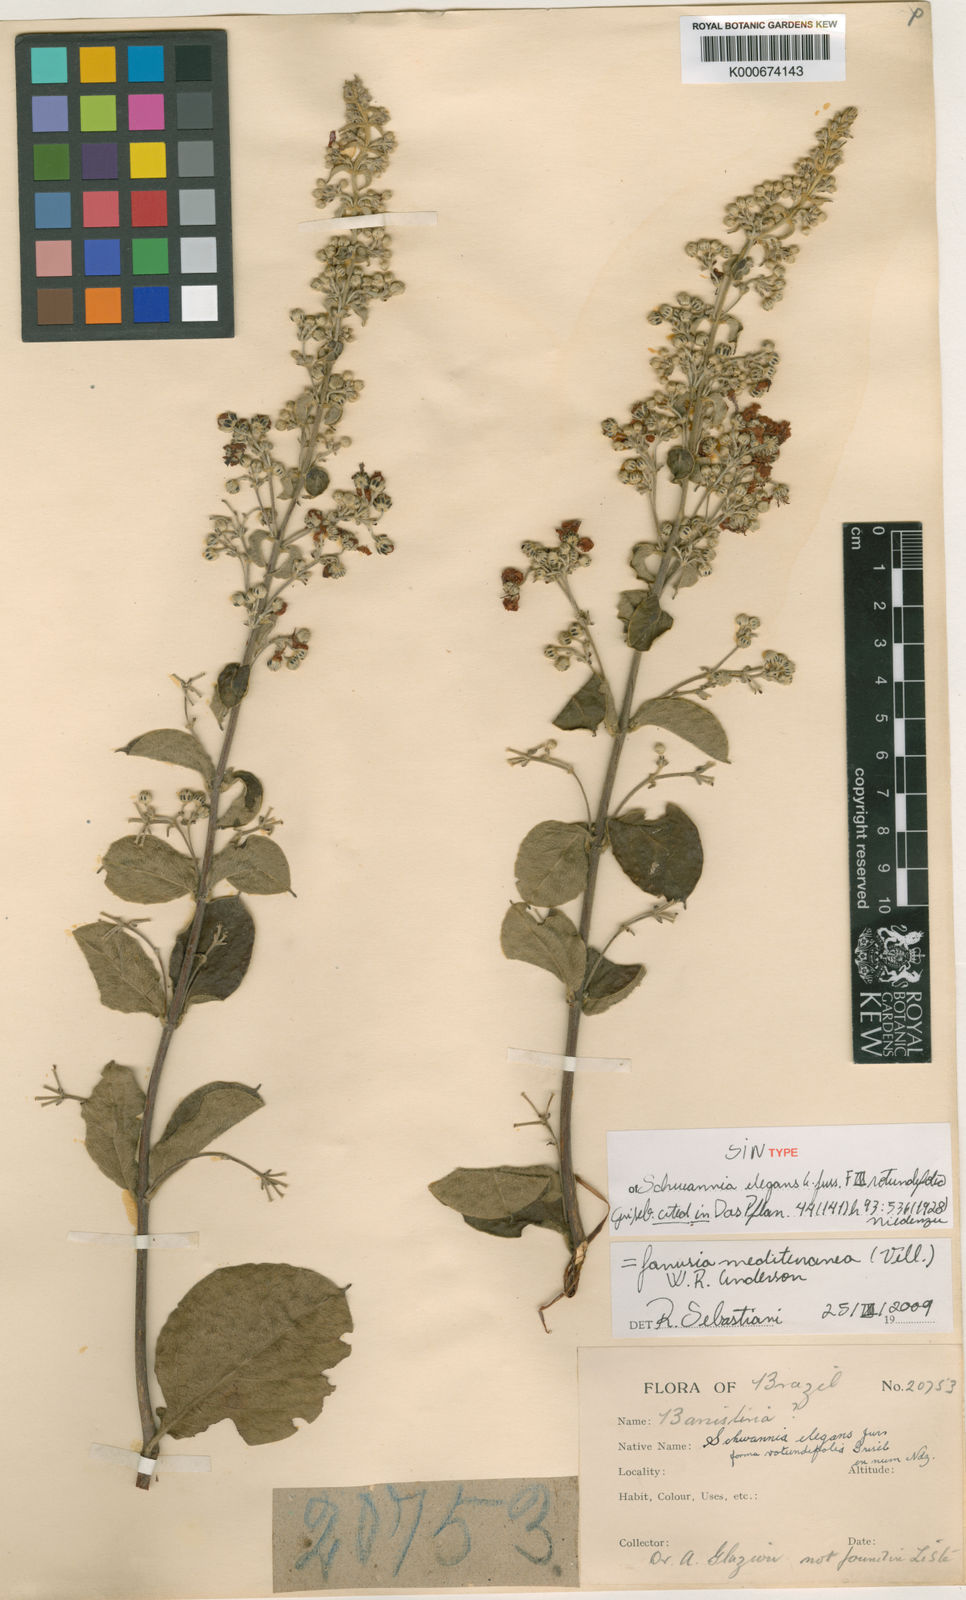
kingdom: Plantae
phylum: Tracheophyta
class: Magnoliopsida
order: Malpighiales
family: Malpighiaceae
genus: Janusia
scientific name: Janusia mediterranea
